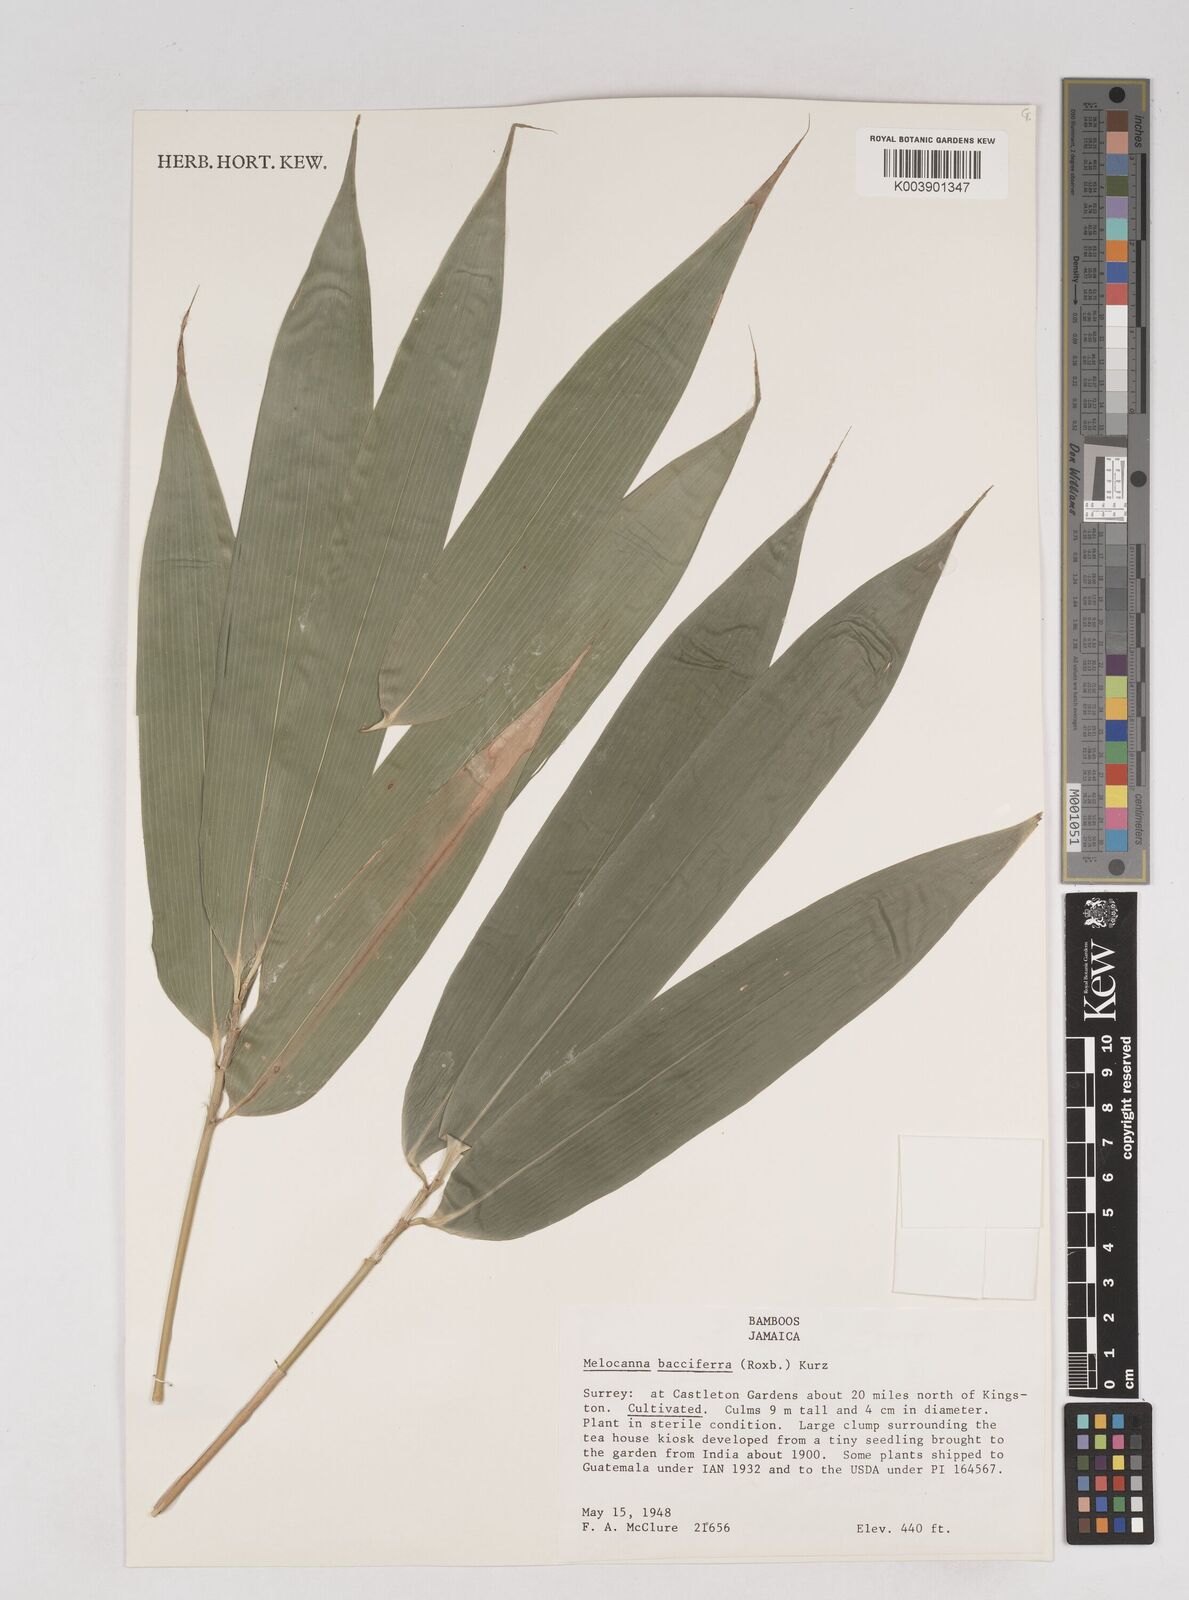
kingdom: Plantae
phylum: Tracheophyta
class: Liliopsida
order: Poales
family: Poaceae
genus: Melocanna
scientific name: Melocanna baccifera
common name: Berry bamboo
